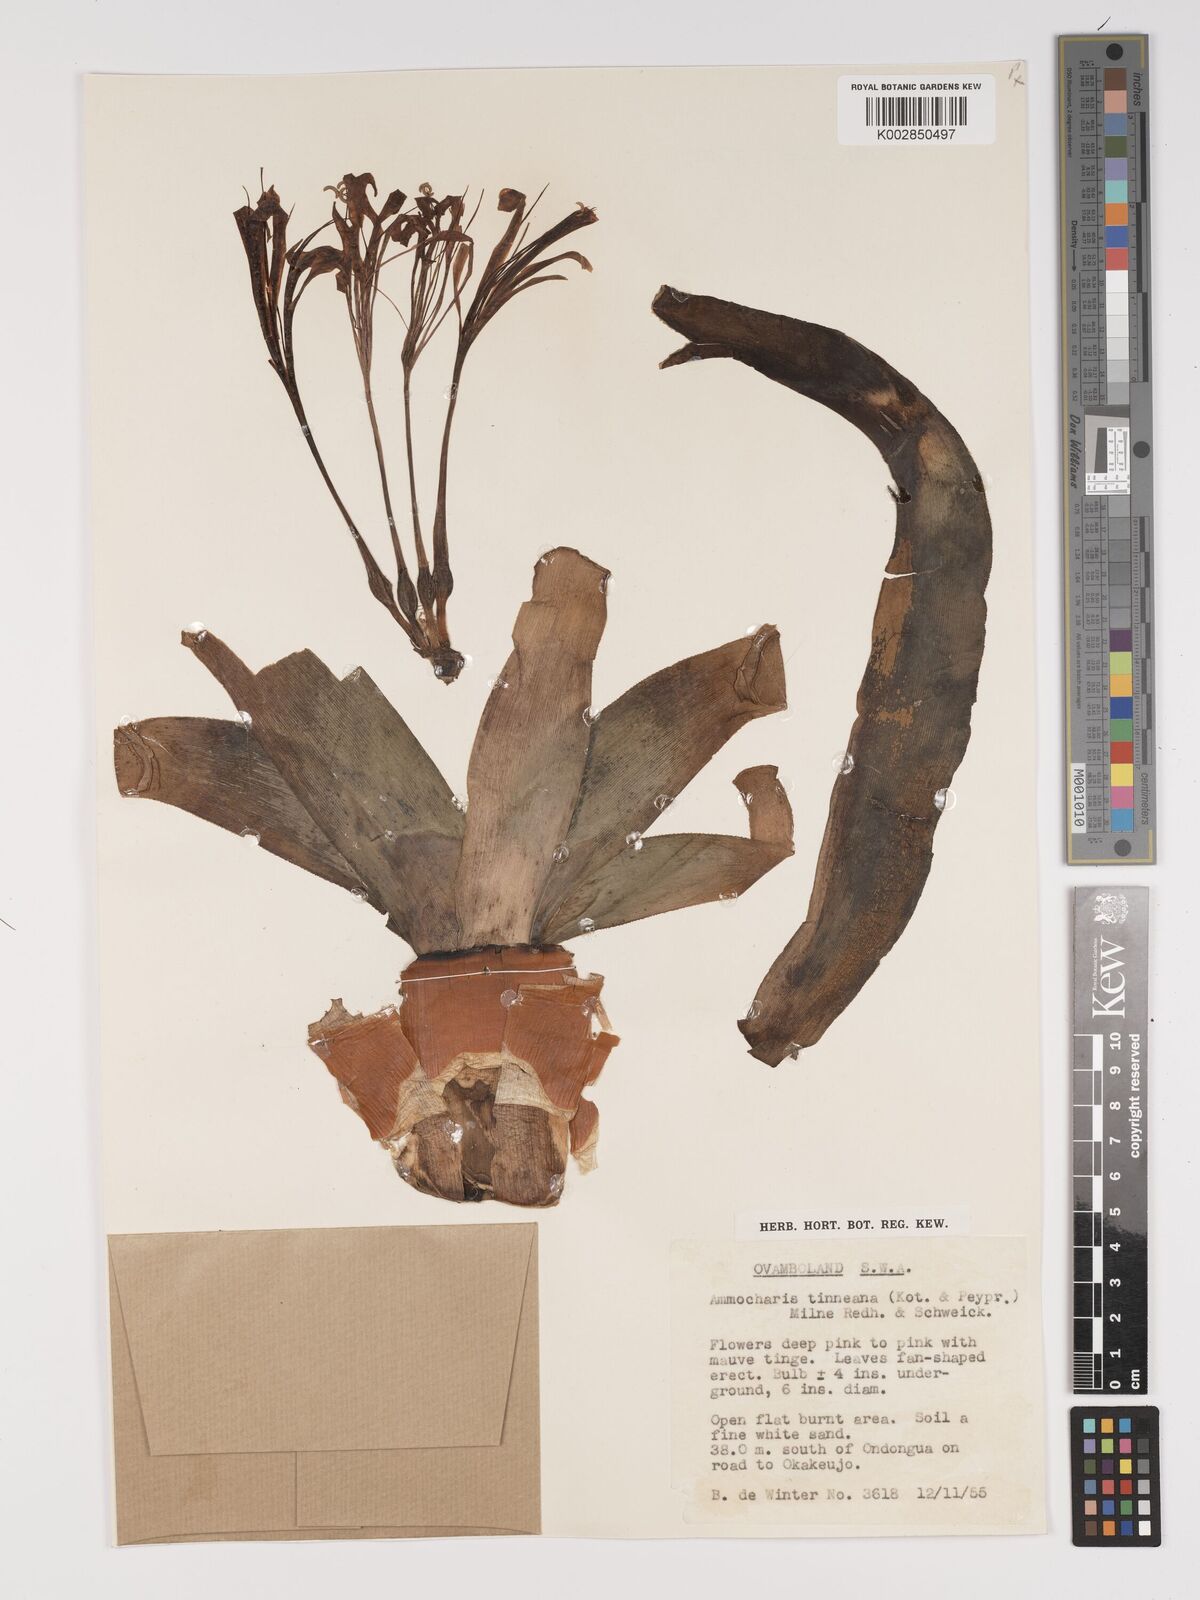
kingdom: Plantae
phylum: Tracheophyta
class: Liliopsida
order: Asparagales
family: Amaryllidaceae
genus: Ammocharis
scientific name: Ammocharis tinneana
